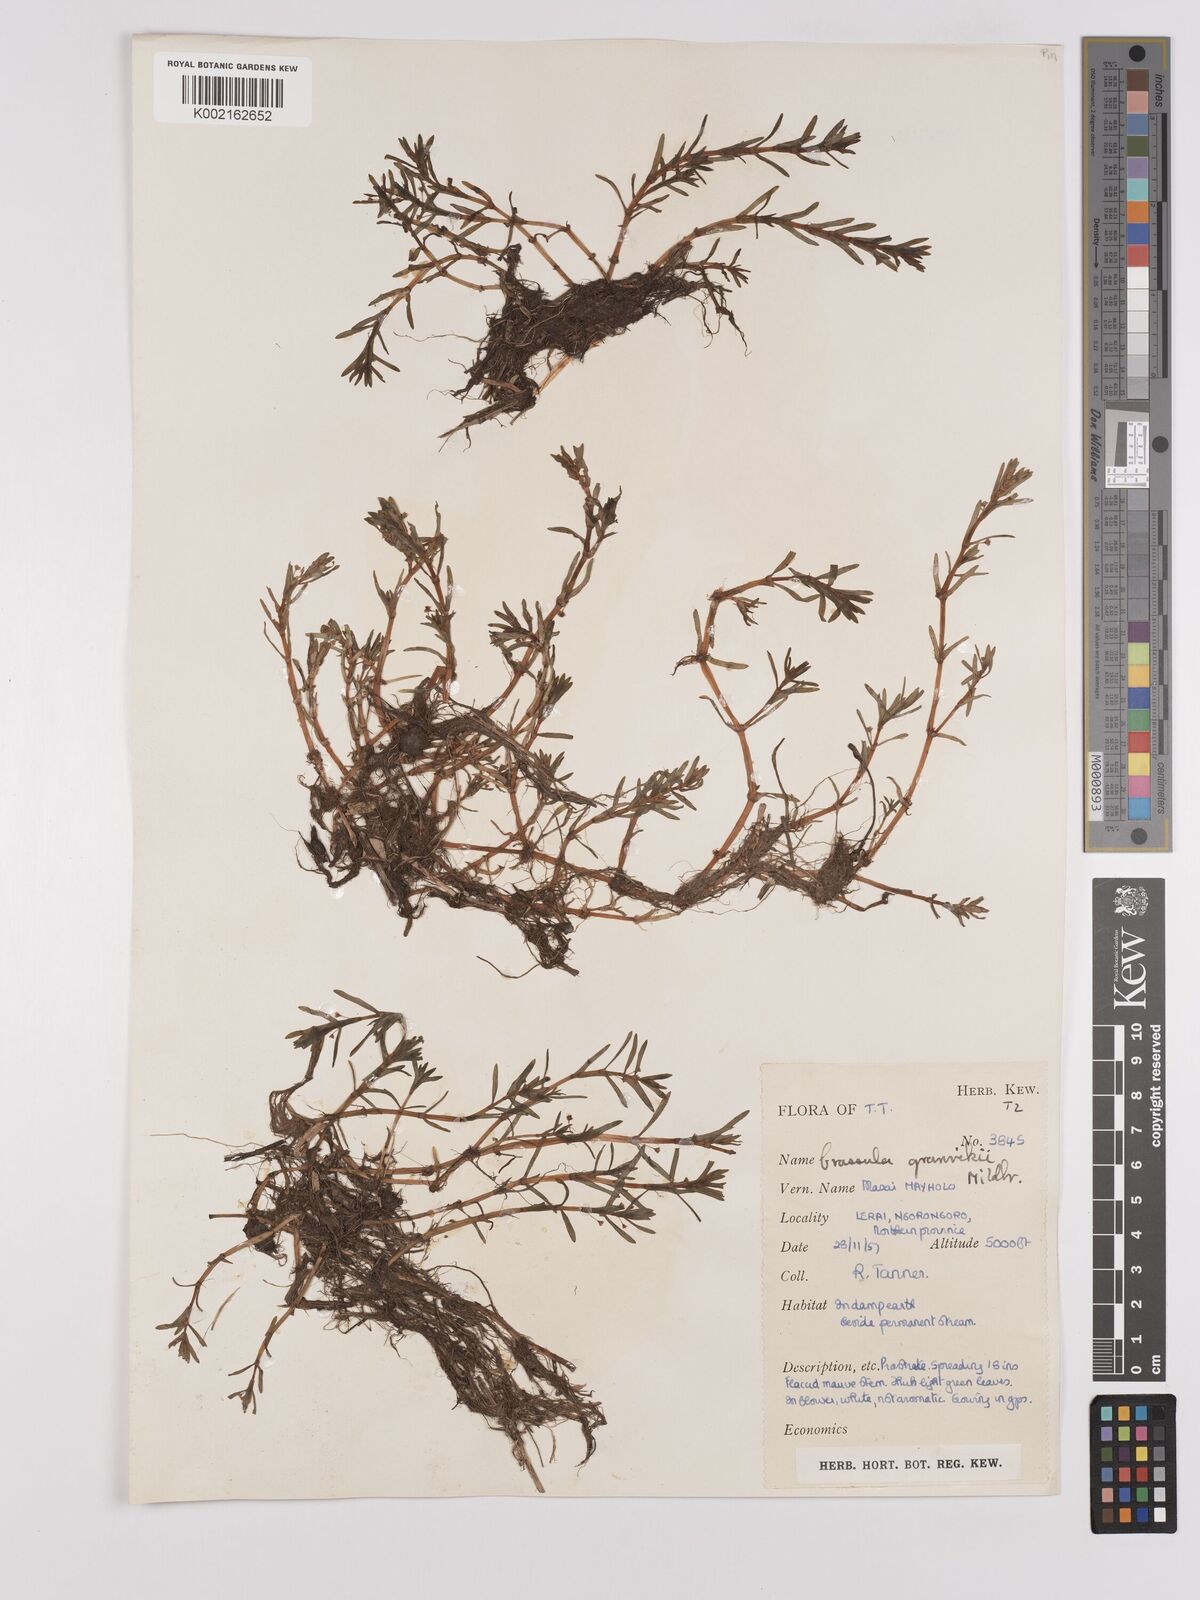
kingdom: Plantae
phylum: Tracheophyta
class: Magnoliopsida
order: Saxifragales
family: Crassulaceae
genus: Crassula
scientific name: Crassula granvikii
